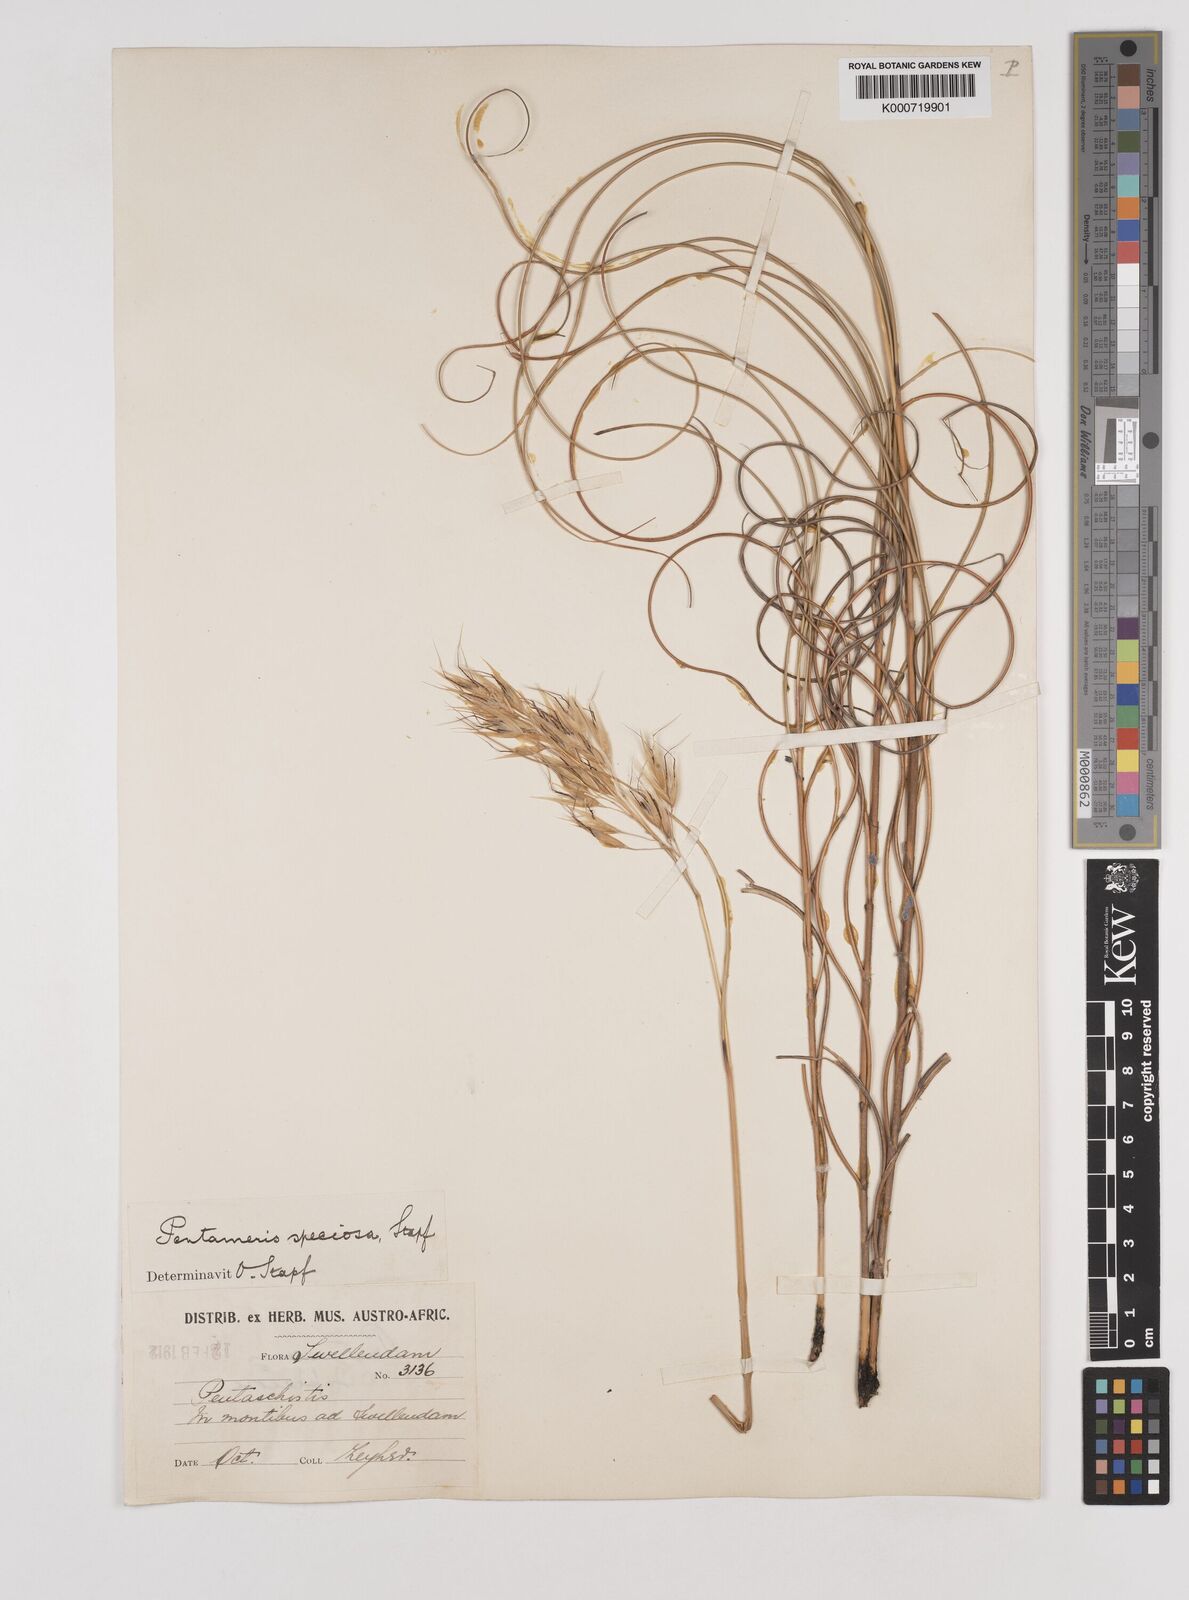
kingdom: Plantae
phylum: Tracheophyta
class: Liliopsida
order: Poales
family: Poaceae
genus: Pentameris
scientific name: Pentameris macrocalycina
